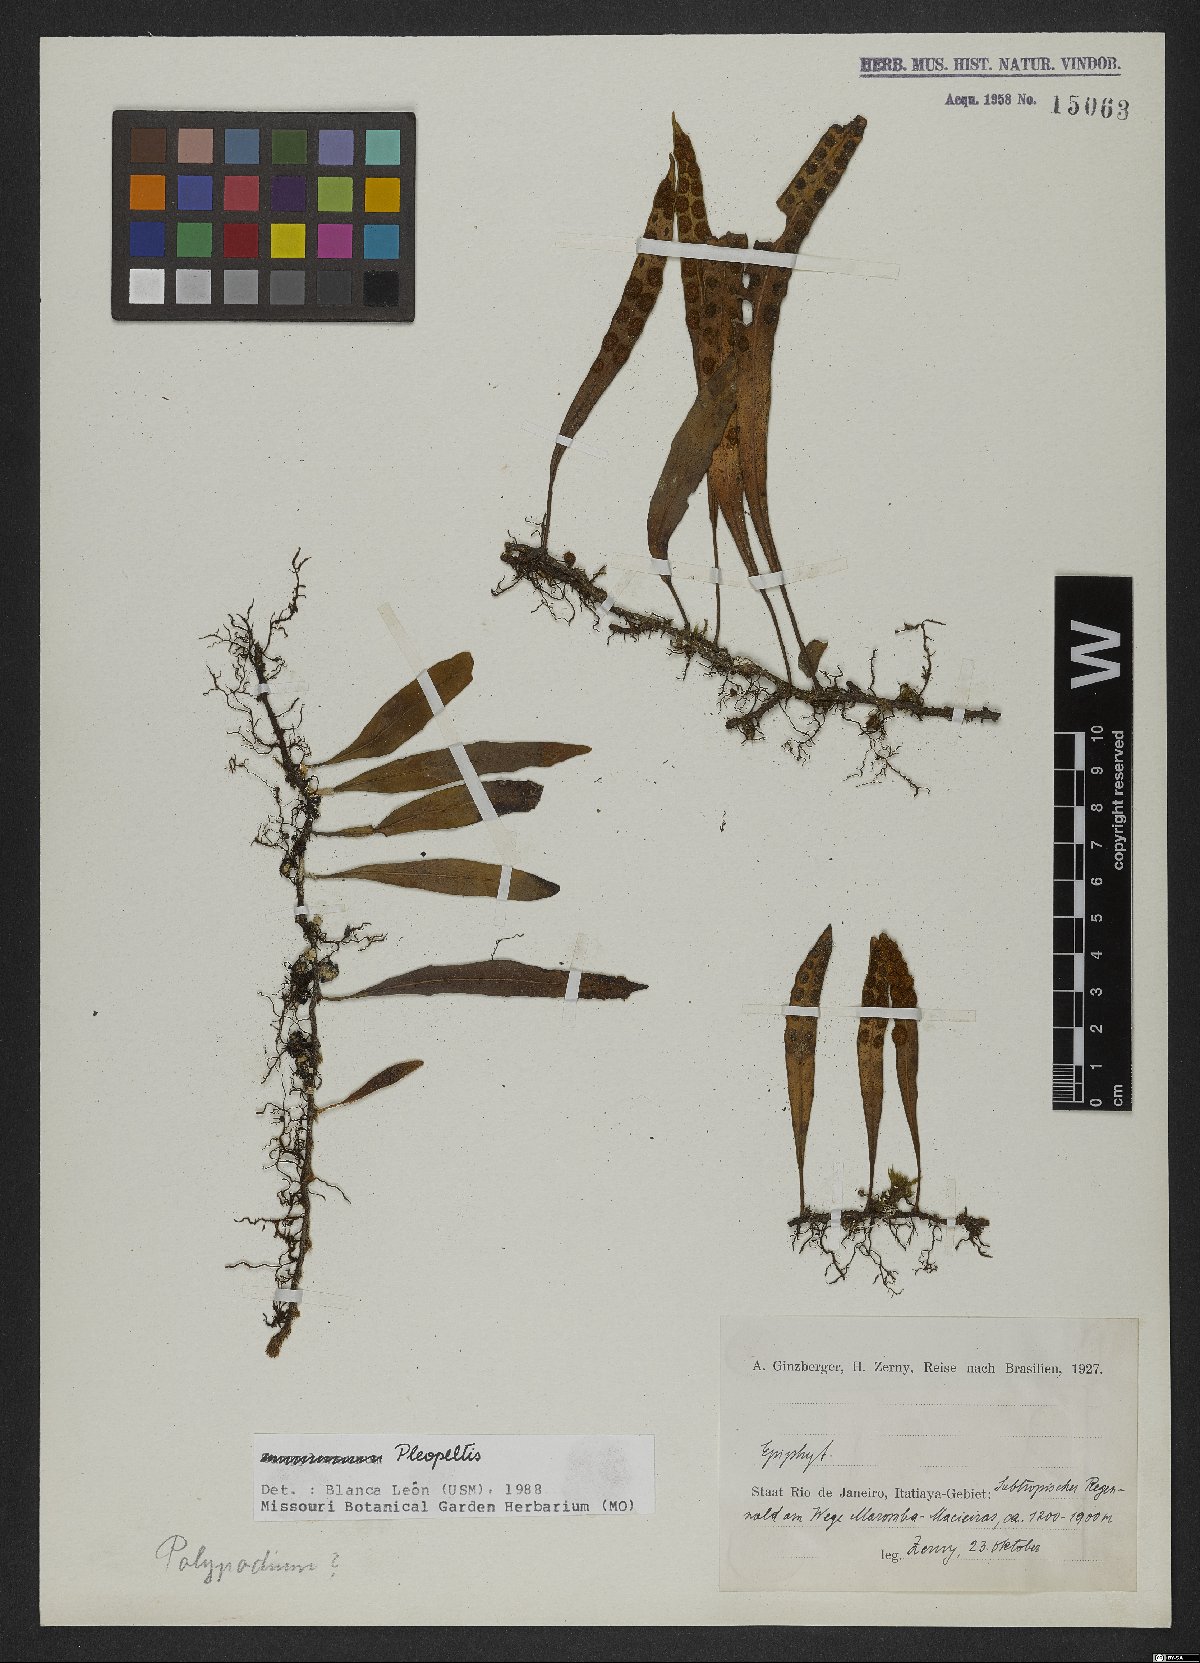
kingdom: Plantae
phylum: Tracheophyta
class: Polypodiopsida
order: Polypodiales
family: Polypodiaceae
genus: Polypodium
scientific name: Polypodium
